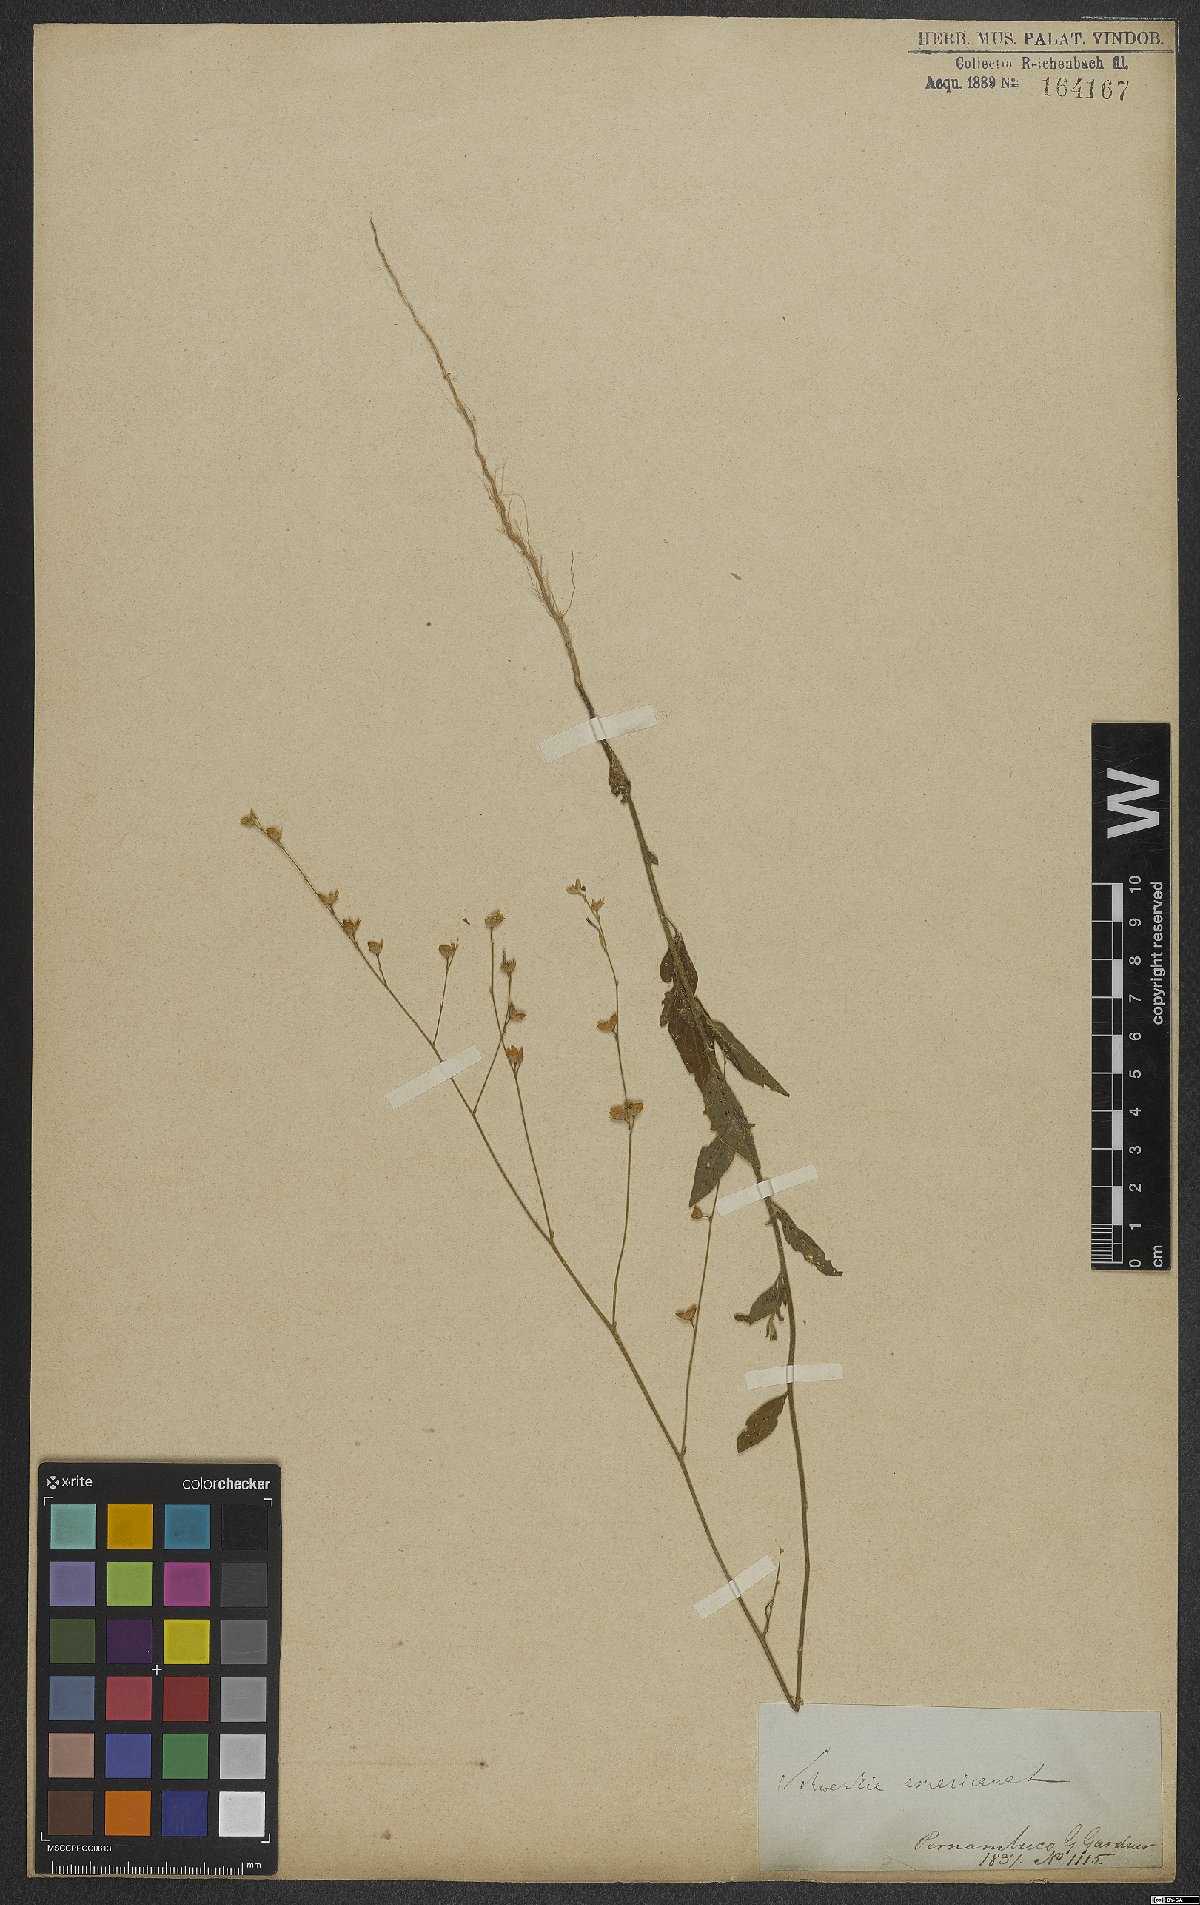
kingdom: Plantae
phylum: Tracheophyta
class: Magnoliopsida
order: Solanales
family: Solanaceae
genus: Schwenckia
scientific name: Schwenckia americana
